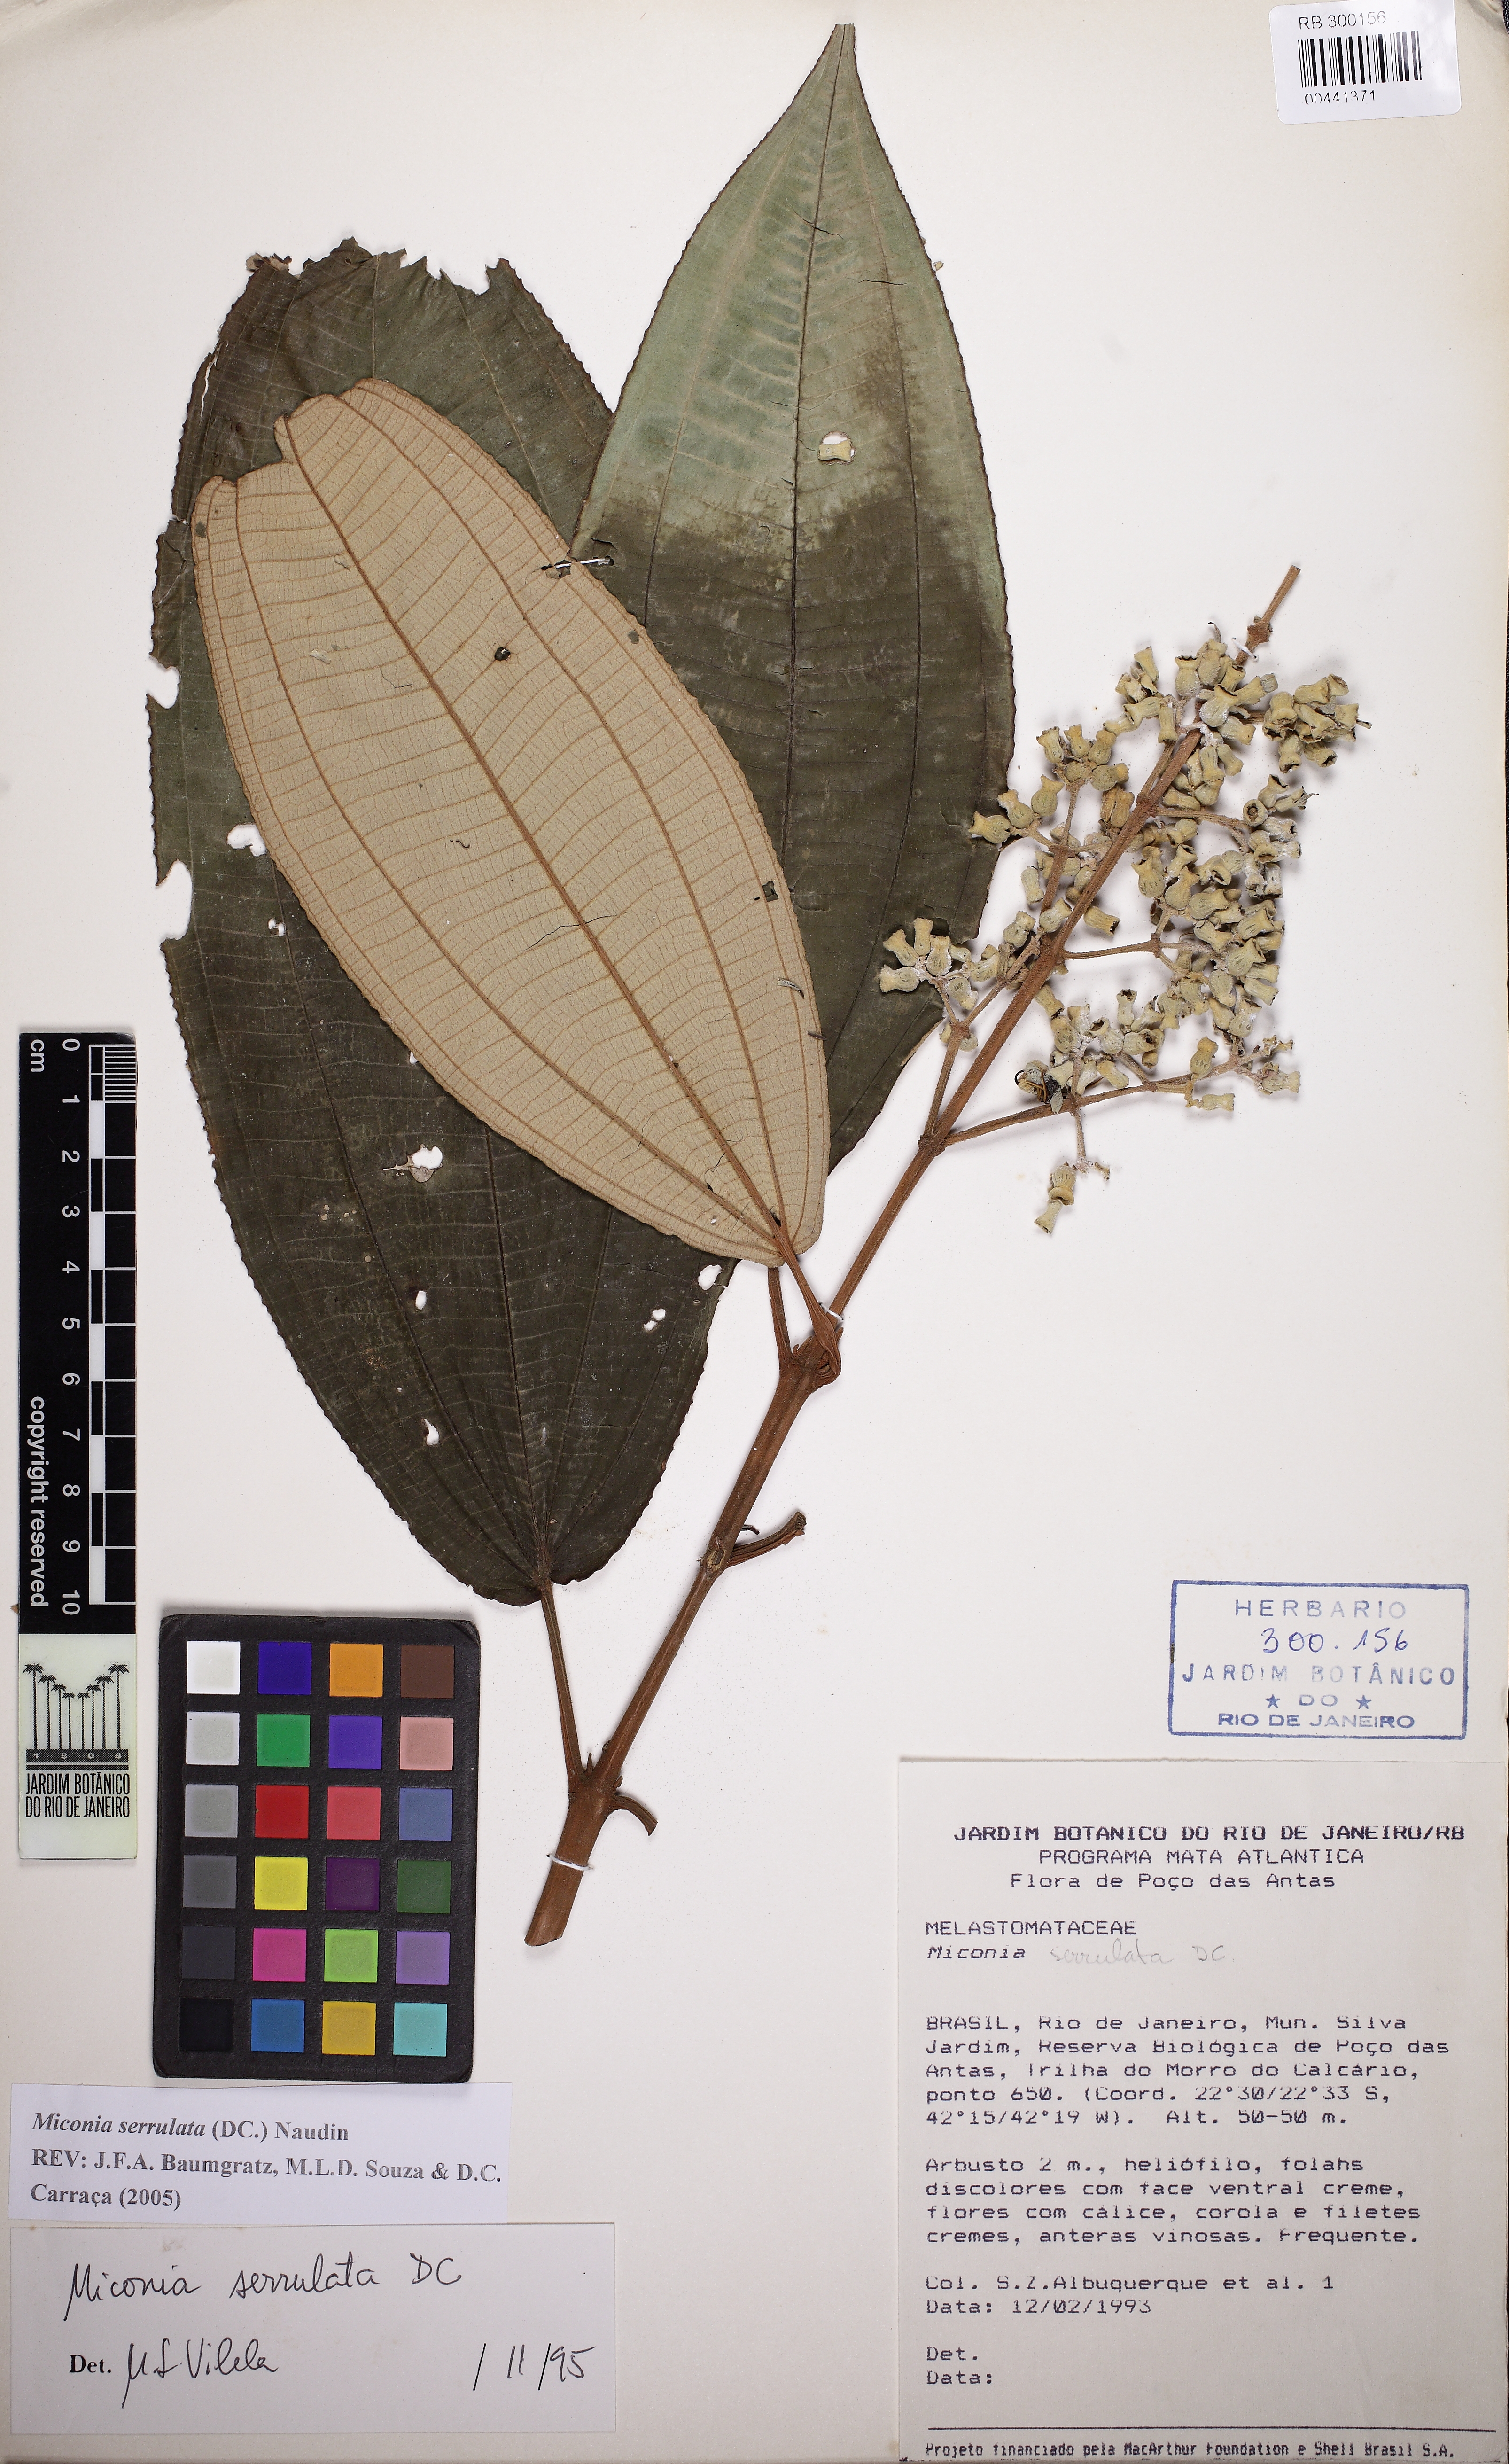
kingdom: Plantae
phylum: Tracheophyta
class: Magnoliopsida
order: Myrtales
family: Melastomataceae
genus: Miconia
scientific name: Miconia serrulata
